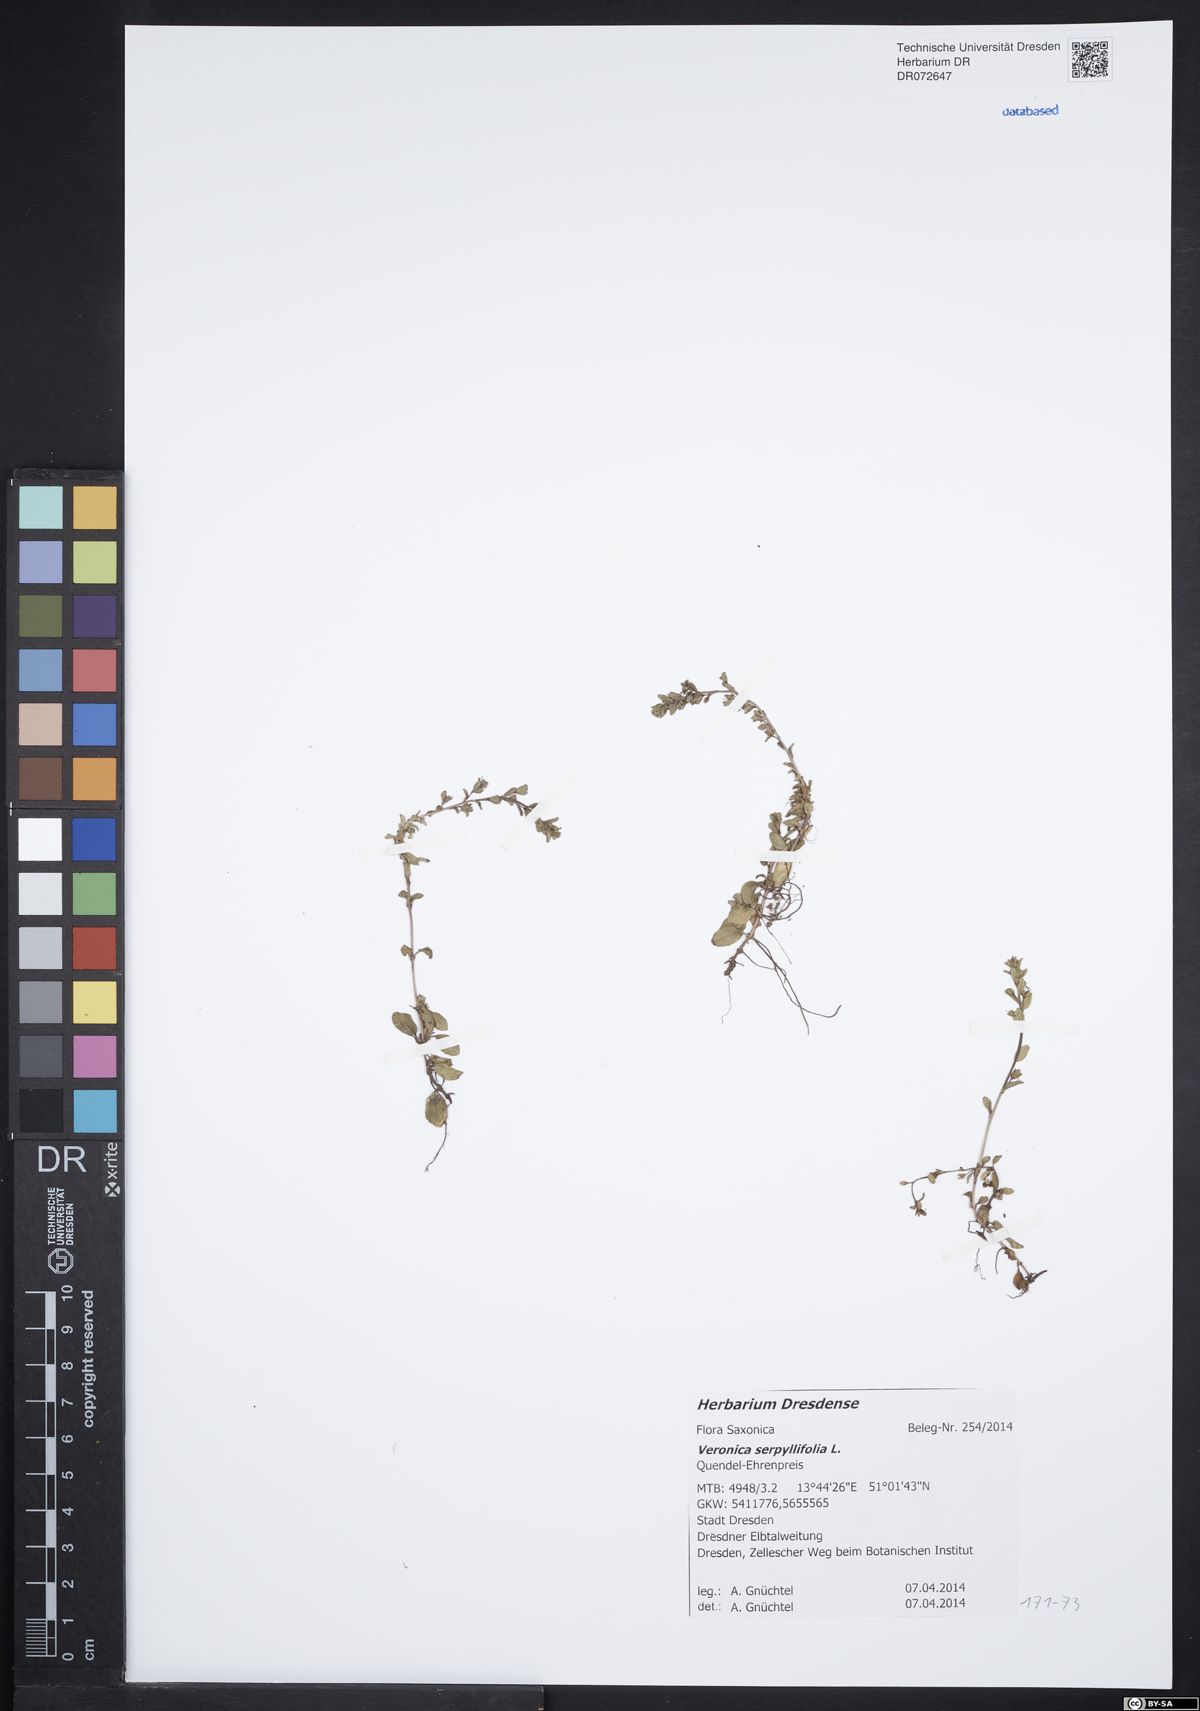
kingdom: Plantae
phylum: Tracheophyta
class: Magnoliopsida
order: Lamiales
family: Plantaginaceae
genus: Veronica
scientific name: Veronica serpyllifolia
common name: Thyme-leaved speedwell
